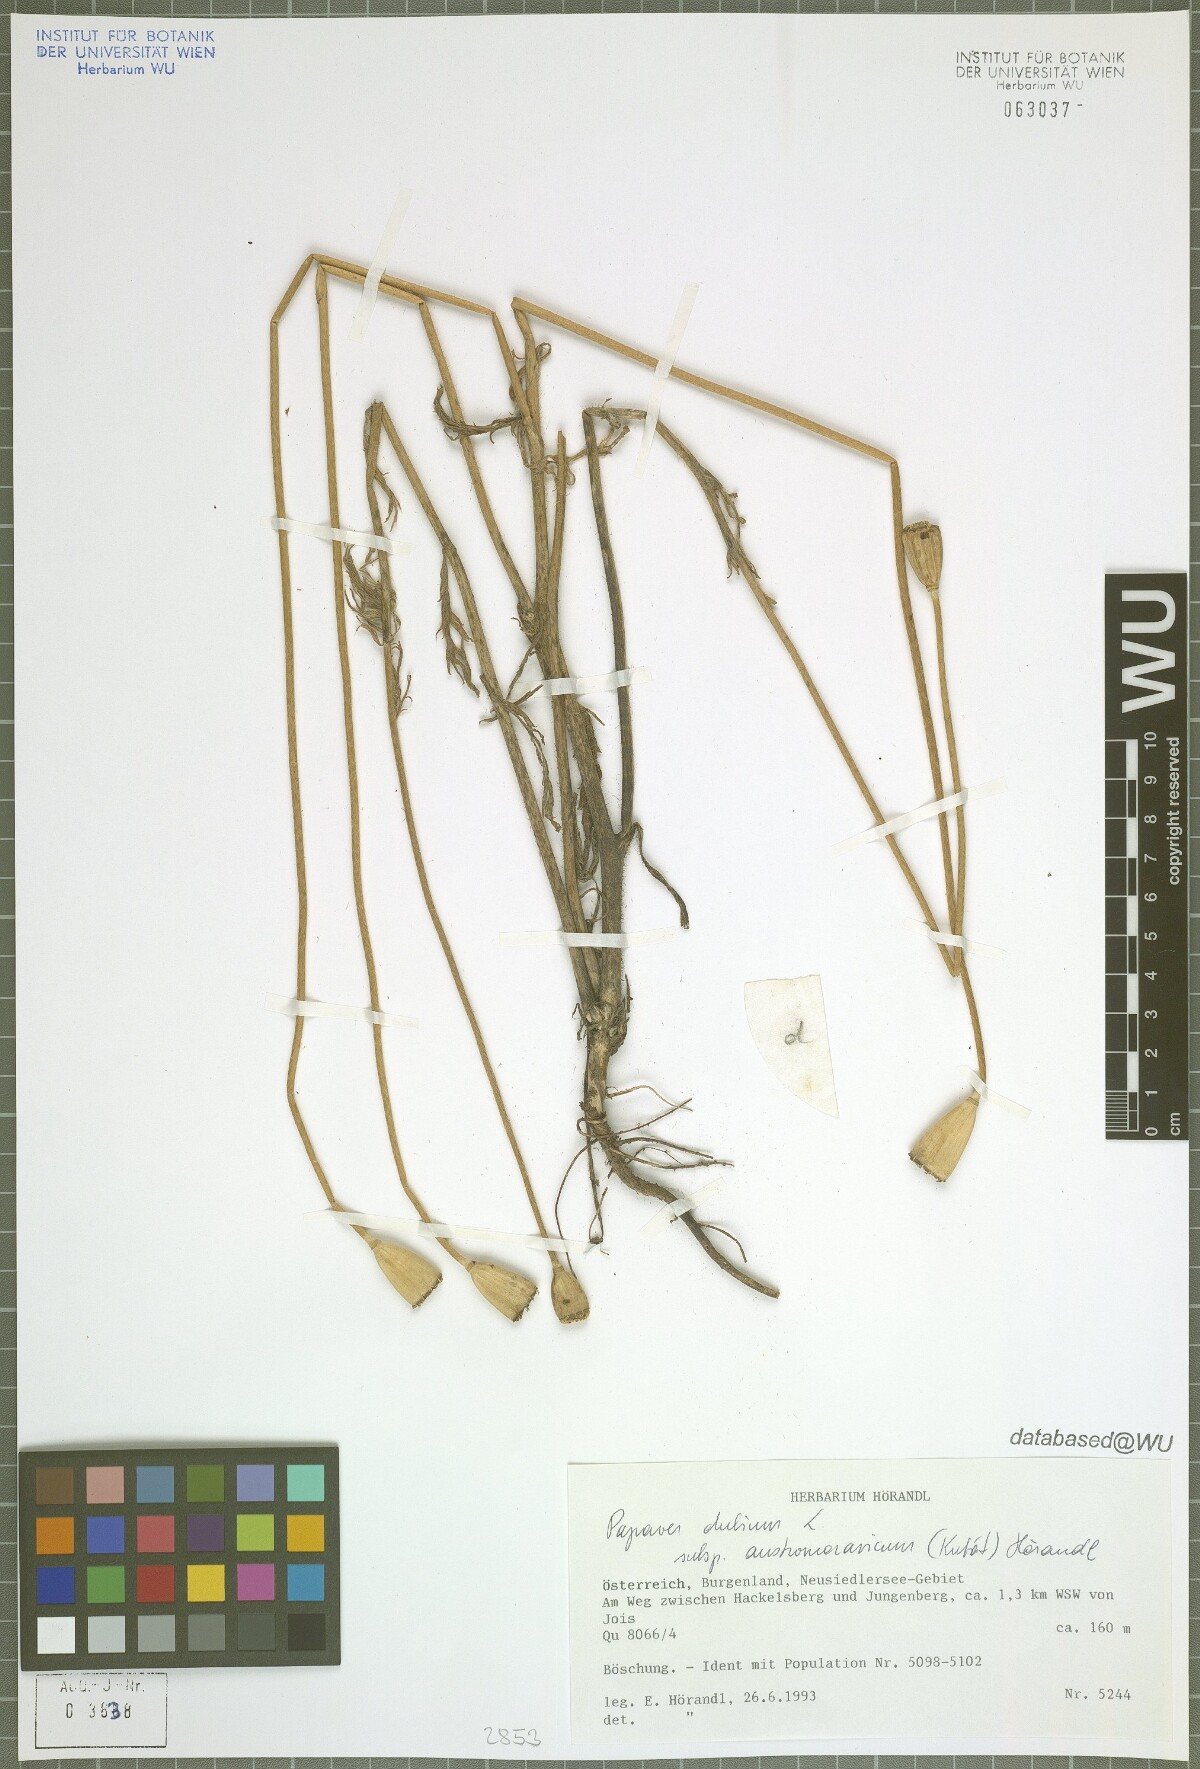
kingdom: Plantae
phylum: Tracheophyta
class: Magnoliopsida
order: Ranunculales
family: Papaveraceae
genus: Papaver
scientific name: Papaver dubium
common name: Long-headed poppy
